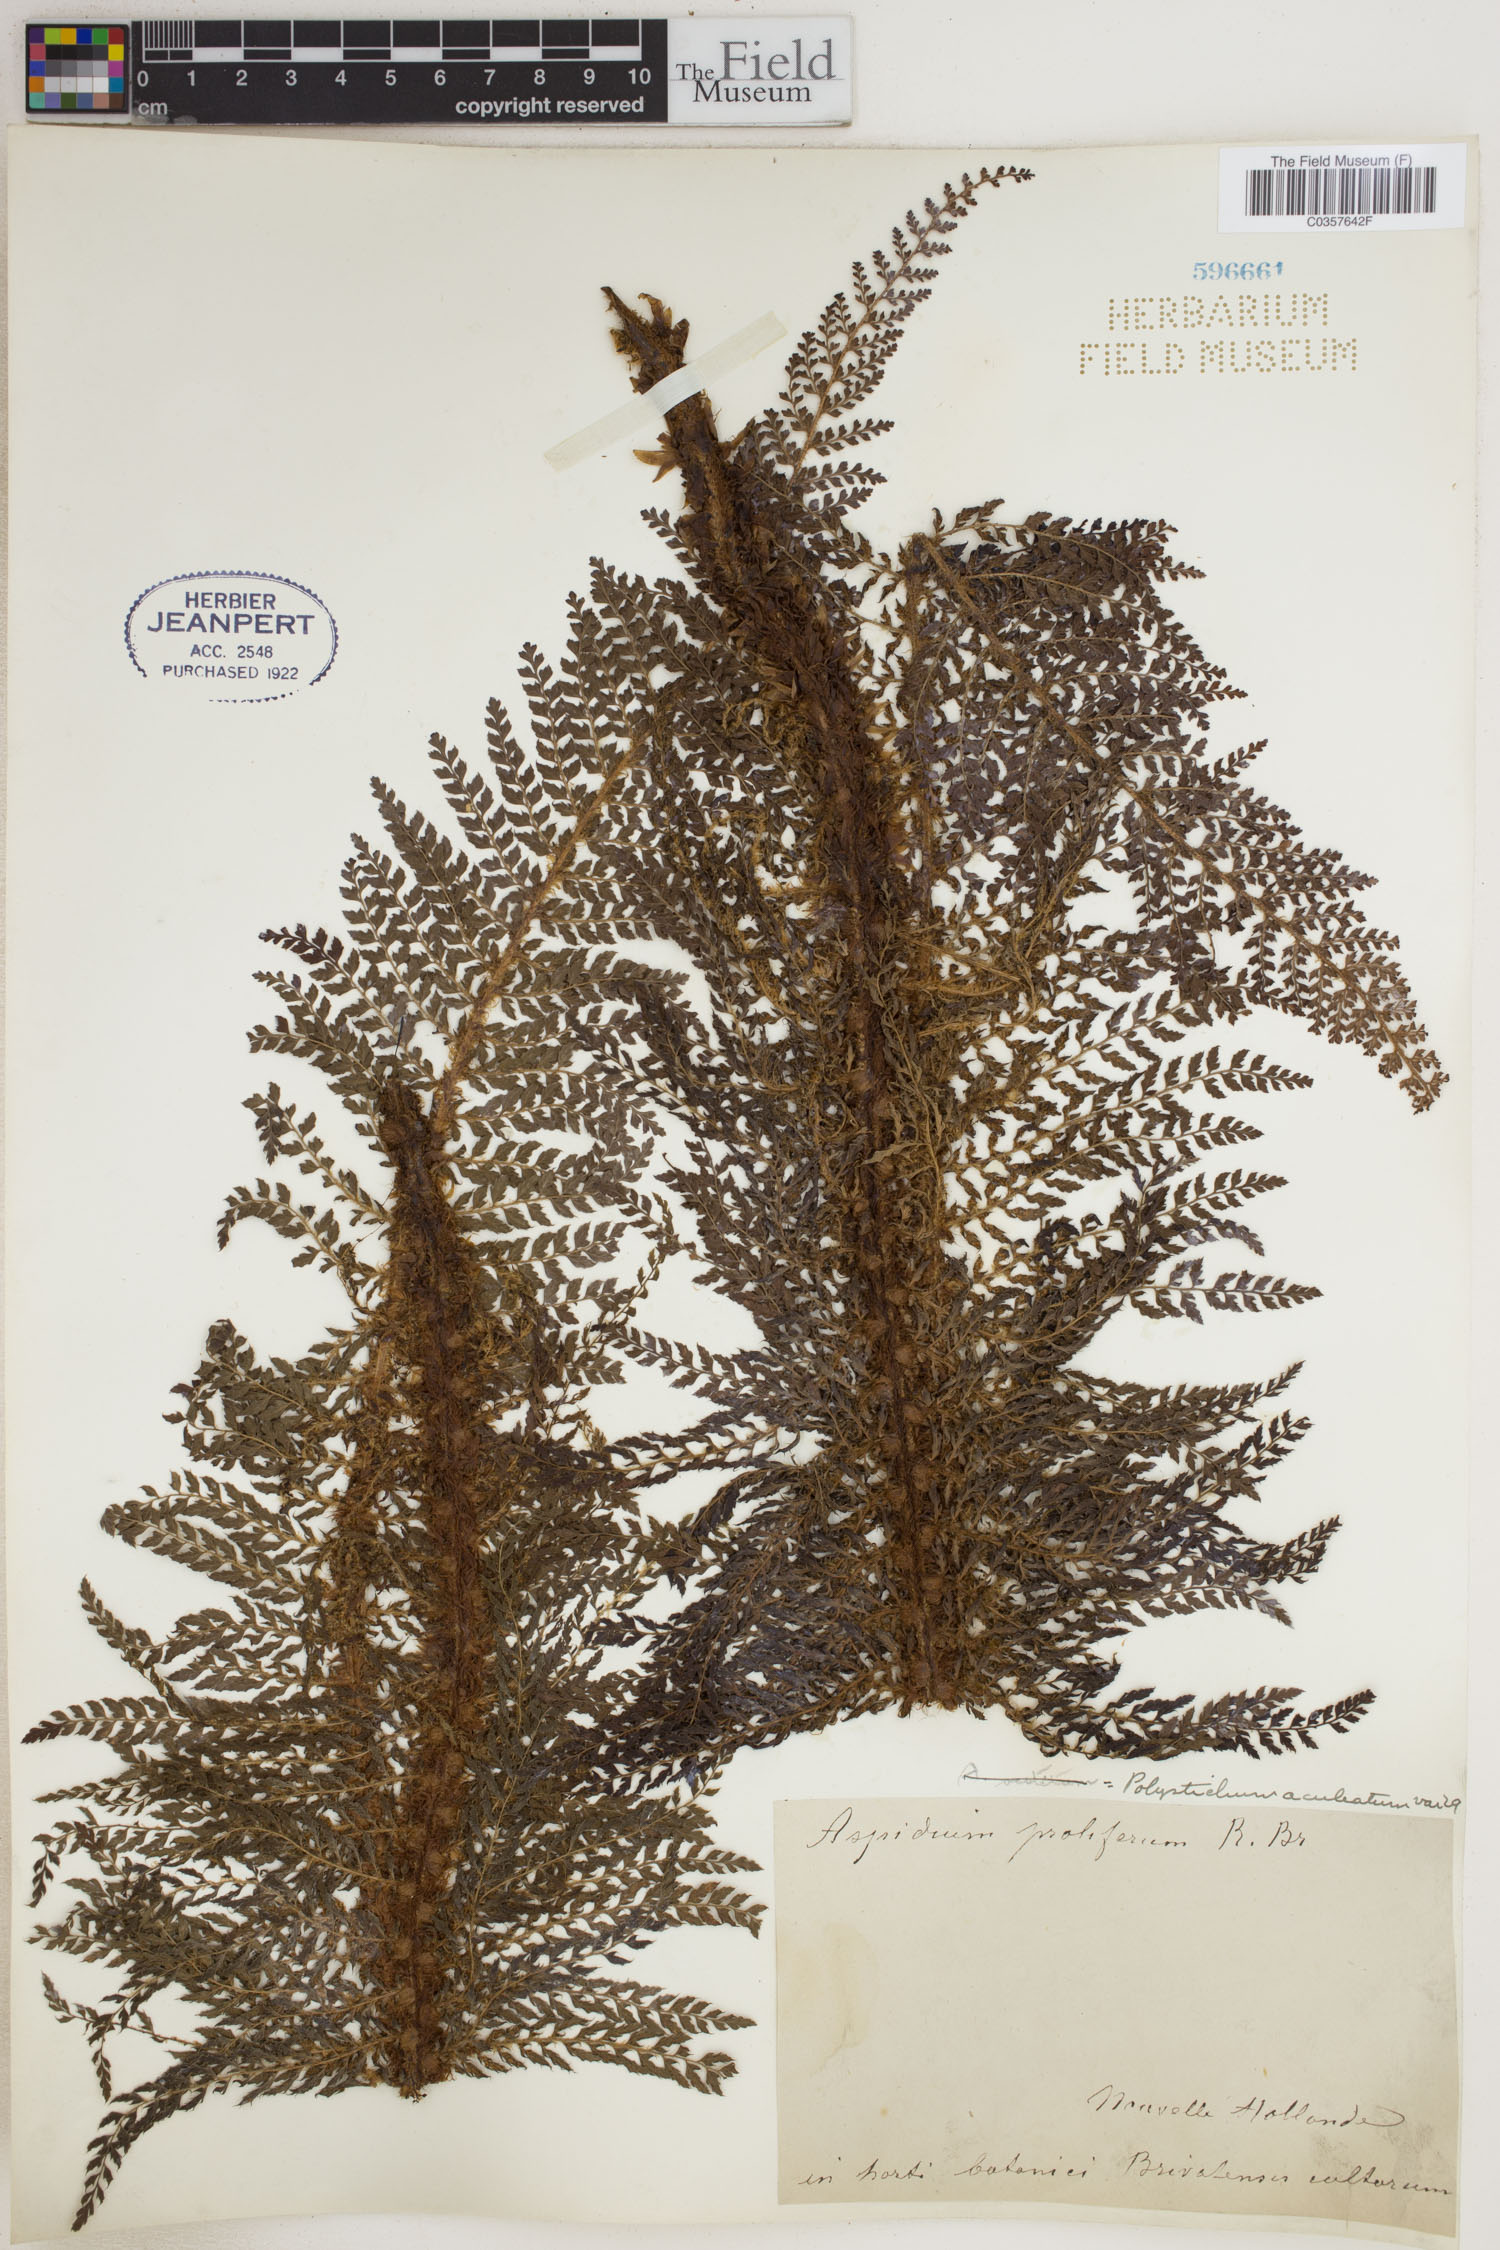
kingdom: Plantae
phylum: Tracheophyta
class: Polypodiopsida
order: Polypodiales
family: Dryopteridaceae
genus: Polystichum
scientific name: Polystichum aculeatum
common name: Hard shield-fern
